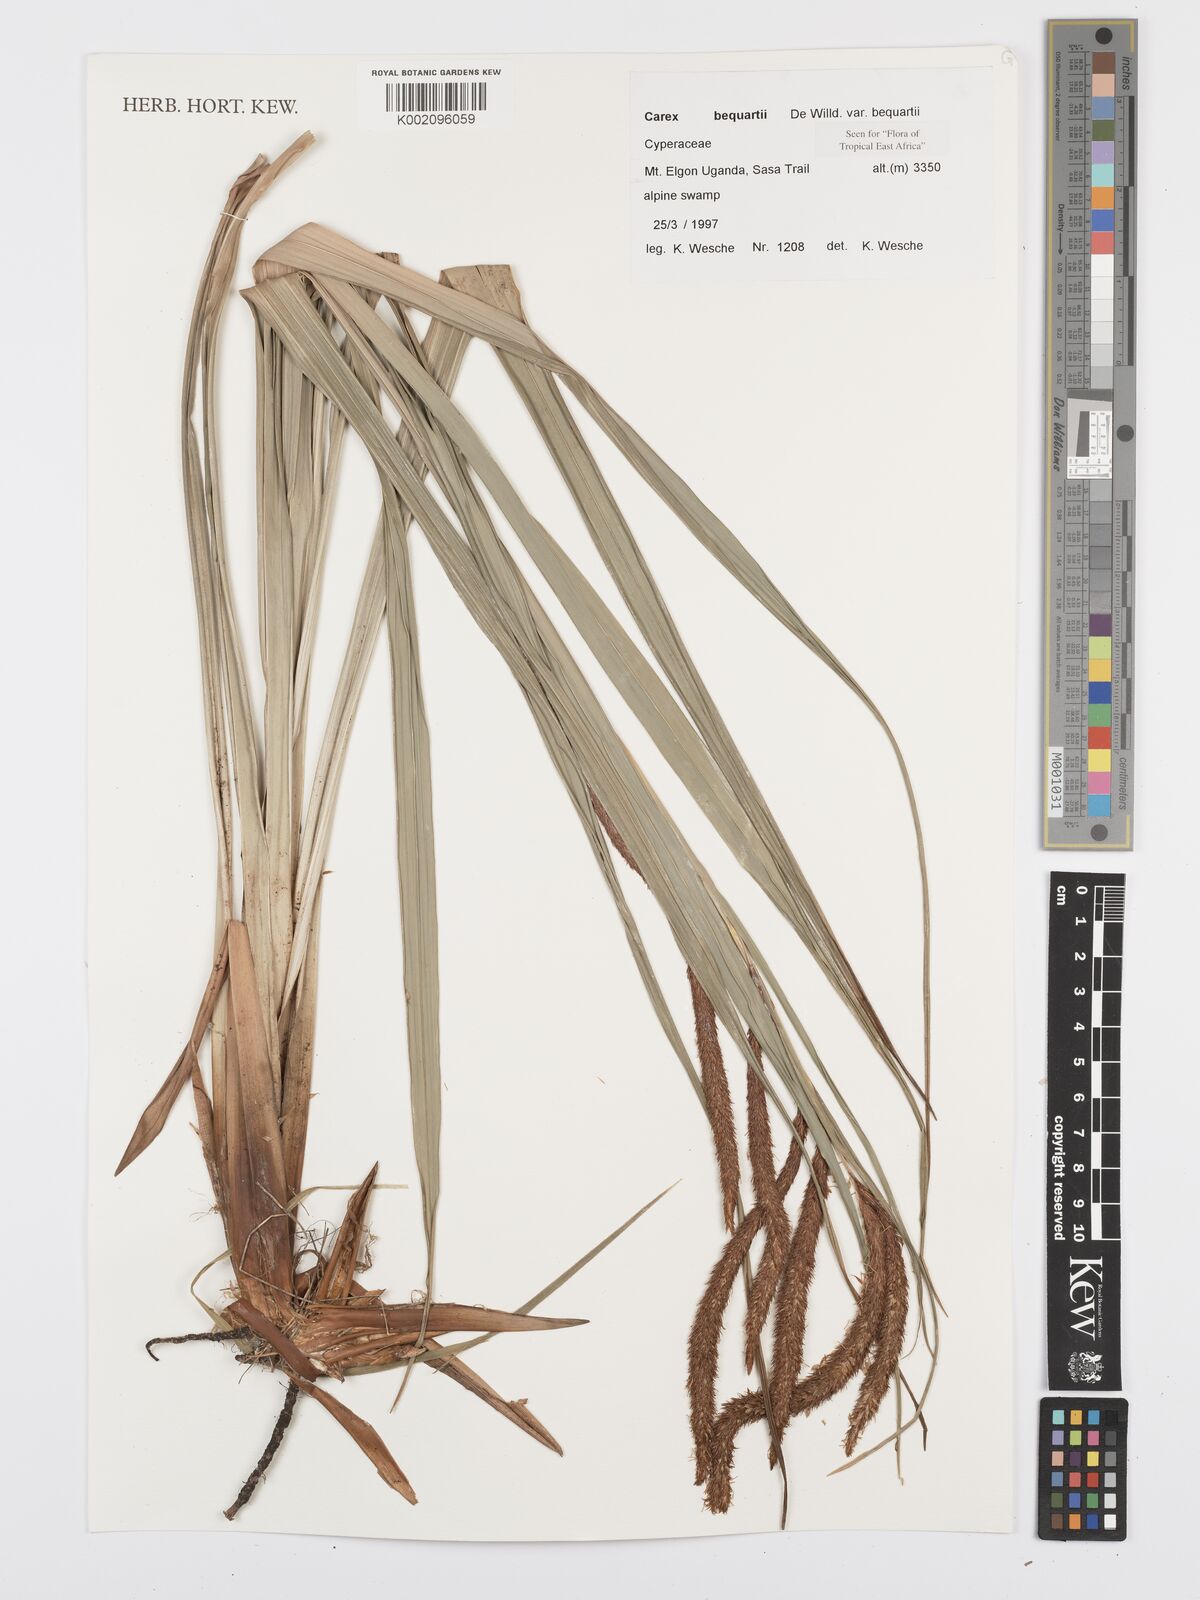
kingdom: Plantae
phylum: Tracheophyta
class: Liliopsida
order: Poales
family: Cyperaceae
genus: Carex
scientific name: Carex bequaertii
